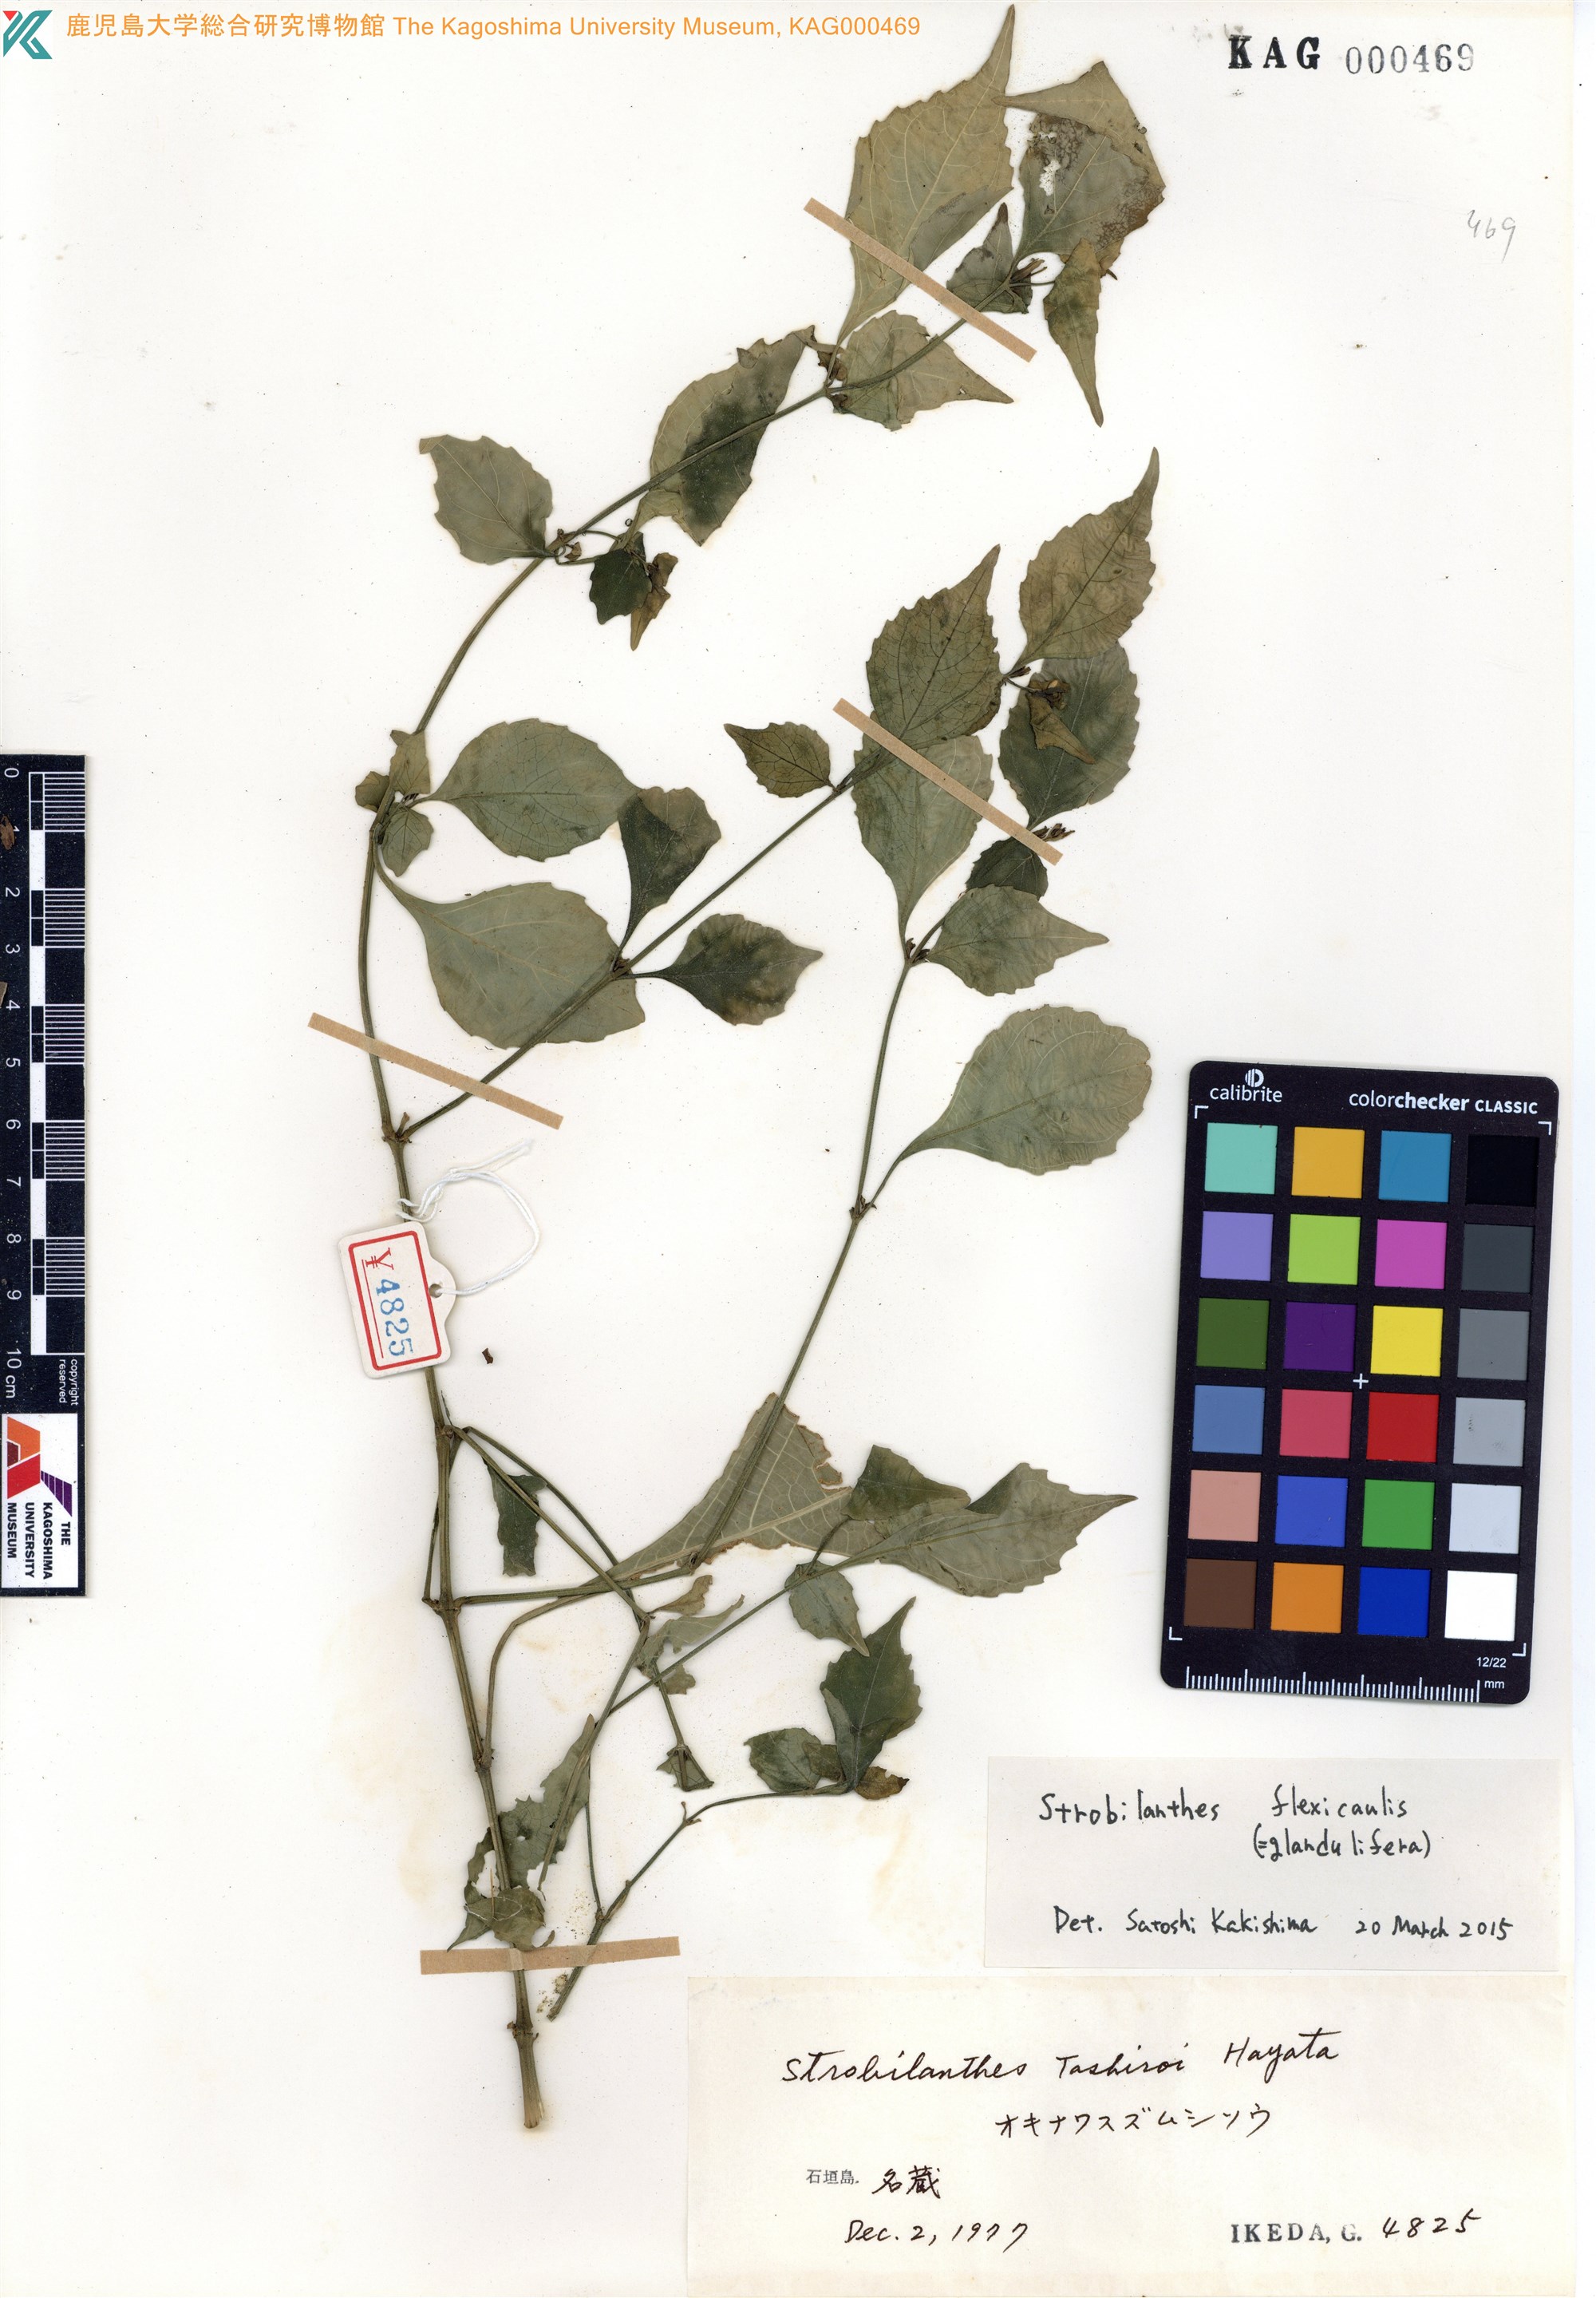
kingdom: Plantae
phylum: Tracheophyta
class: Magnoliopsida
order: Lamiales
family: Acanthaceae
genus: Strobilanthes
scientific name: Strobilanthes flexicaulis
